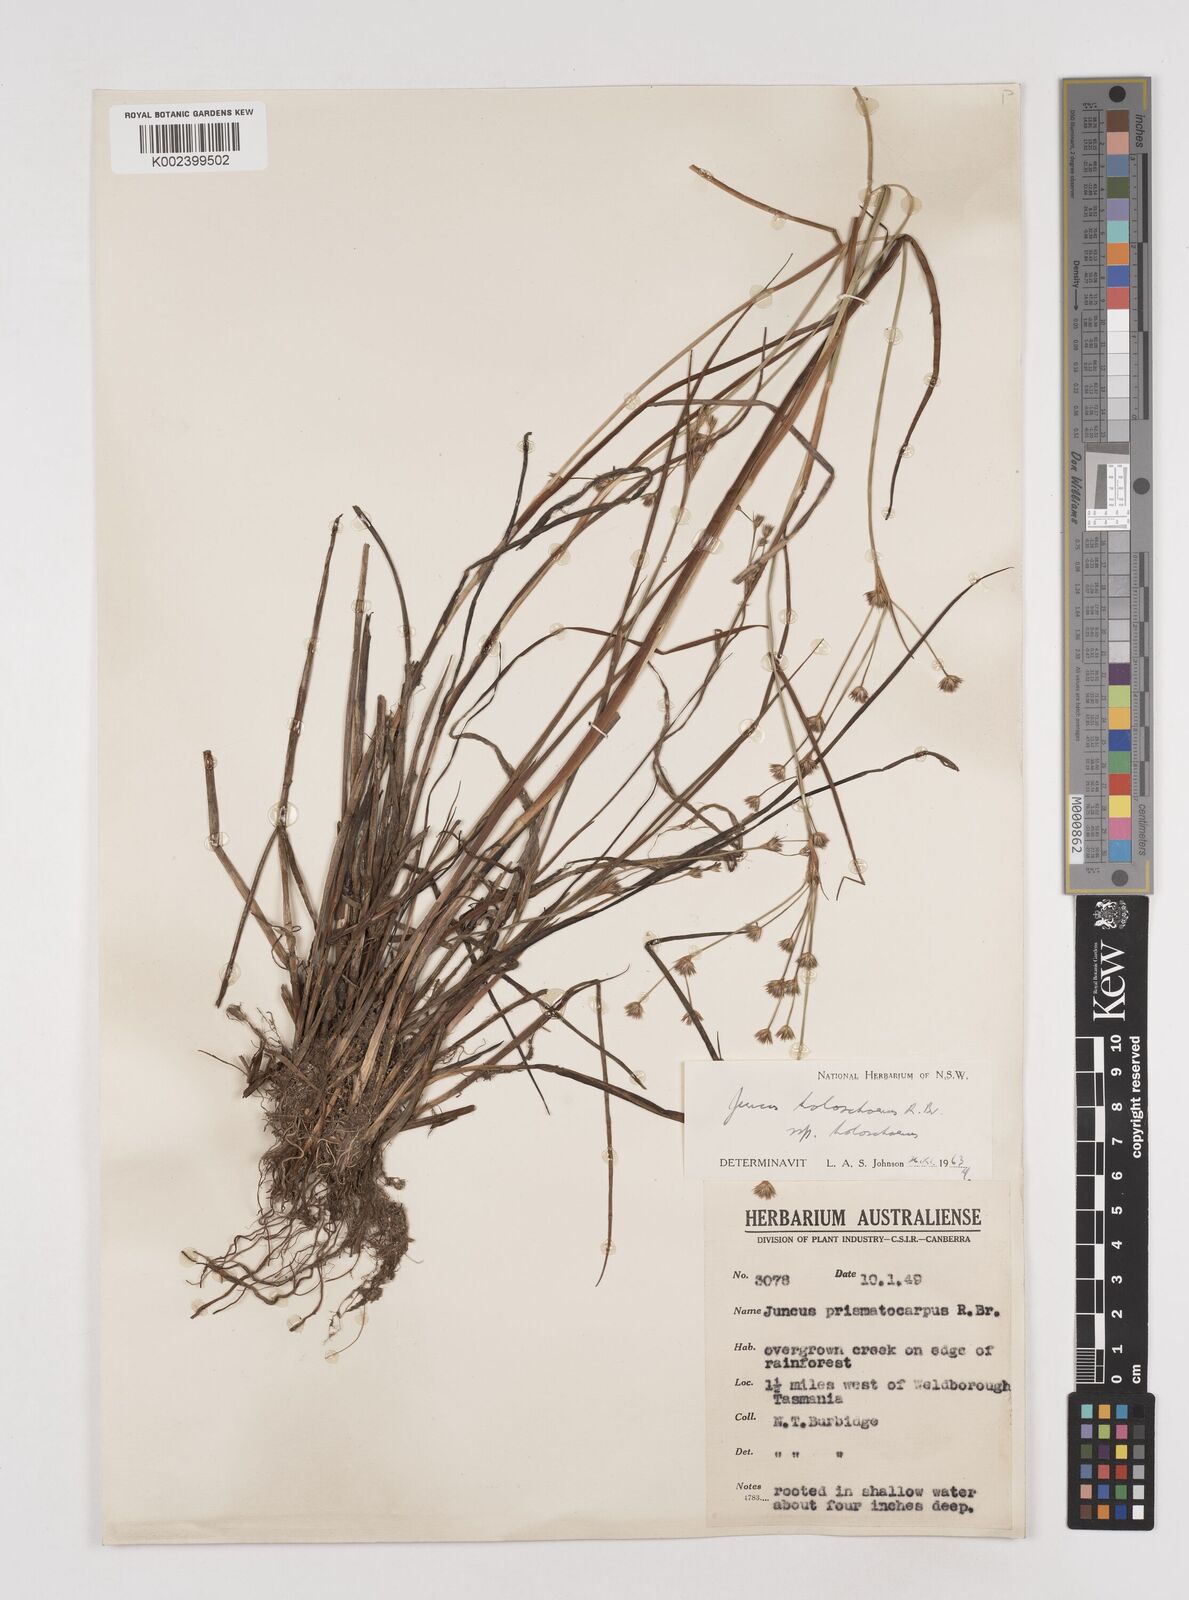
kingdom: Plantae
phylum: Tracheophyta
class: Liliopsida
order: Poales
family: Juncaceae
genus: Juncus
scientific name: Juncus holoschoenus
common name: Joint-leaf rush
